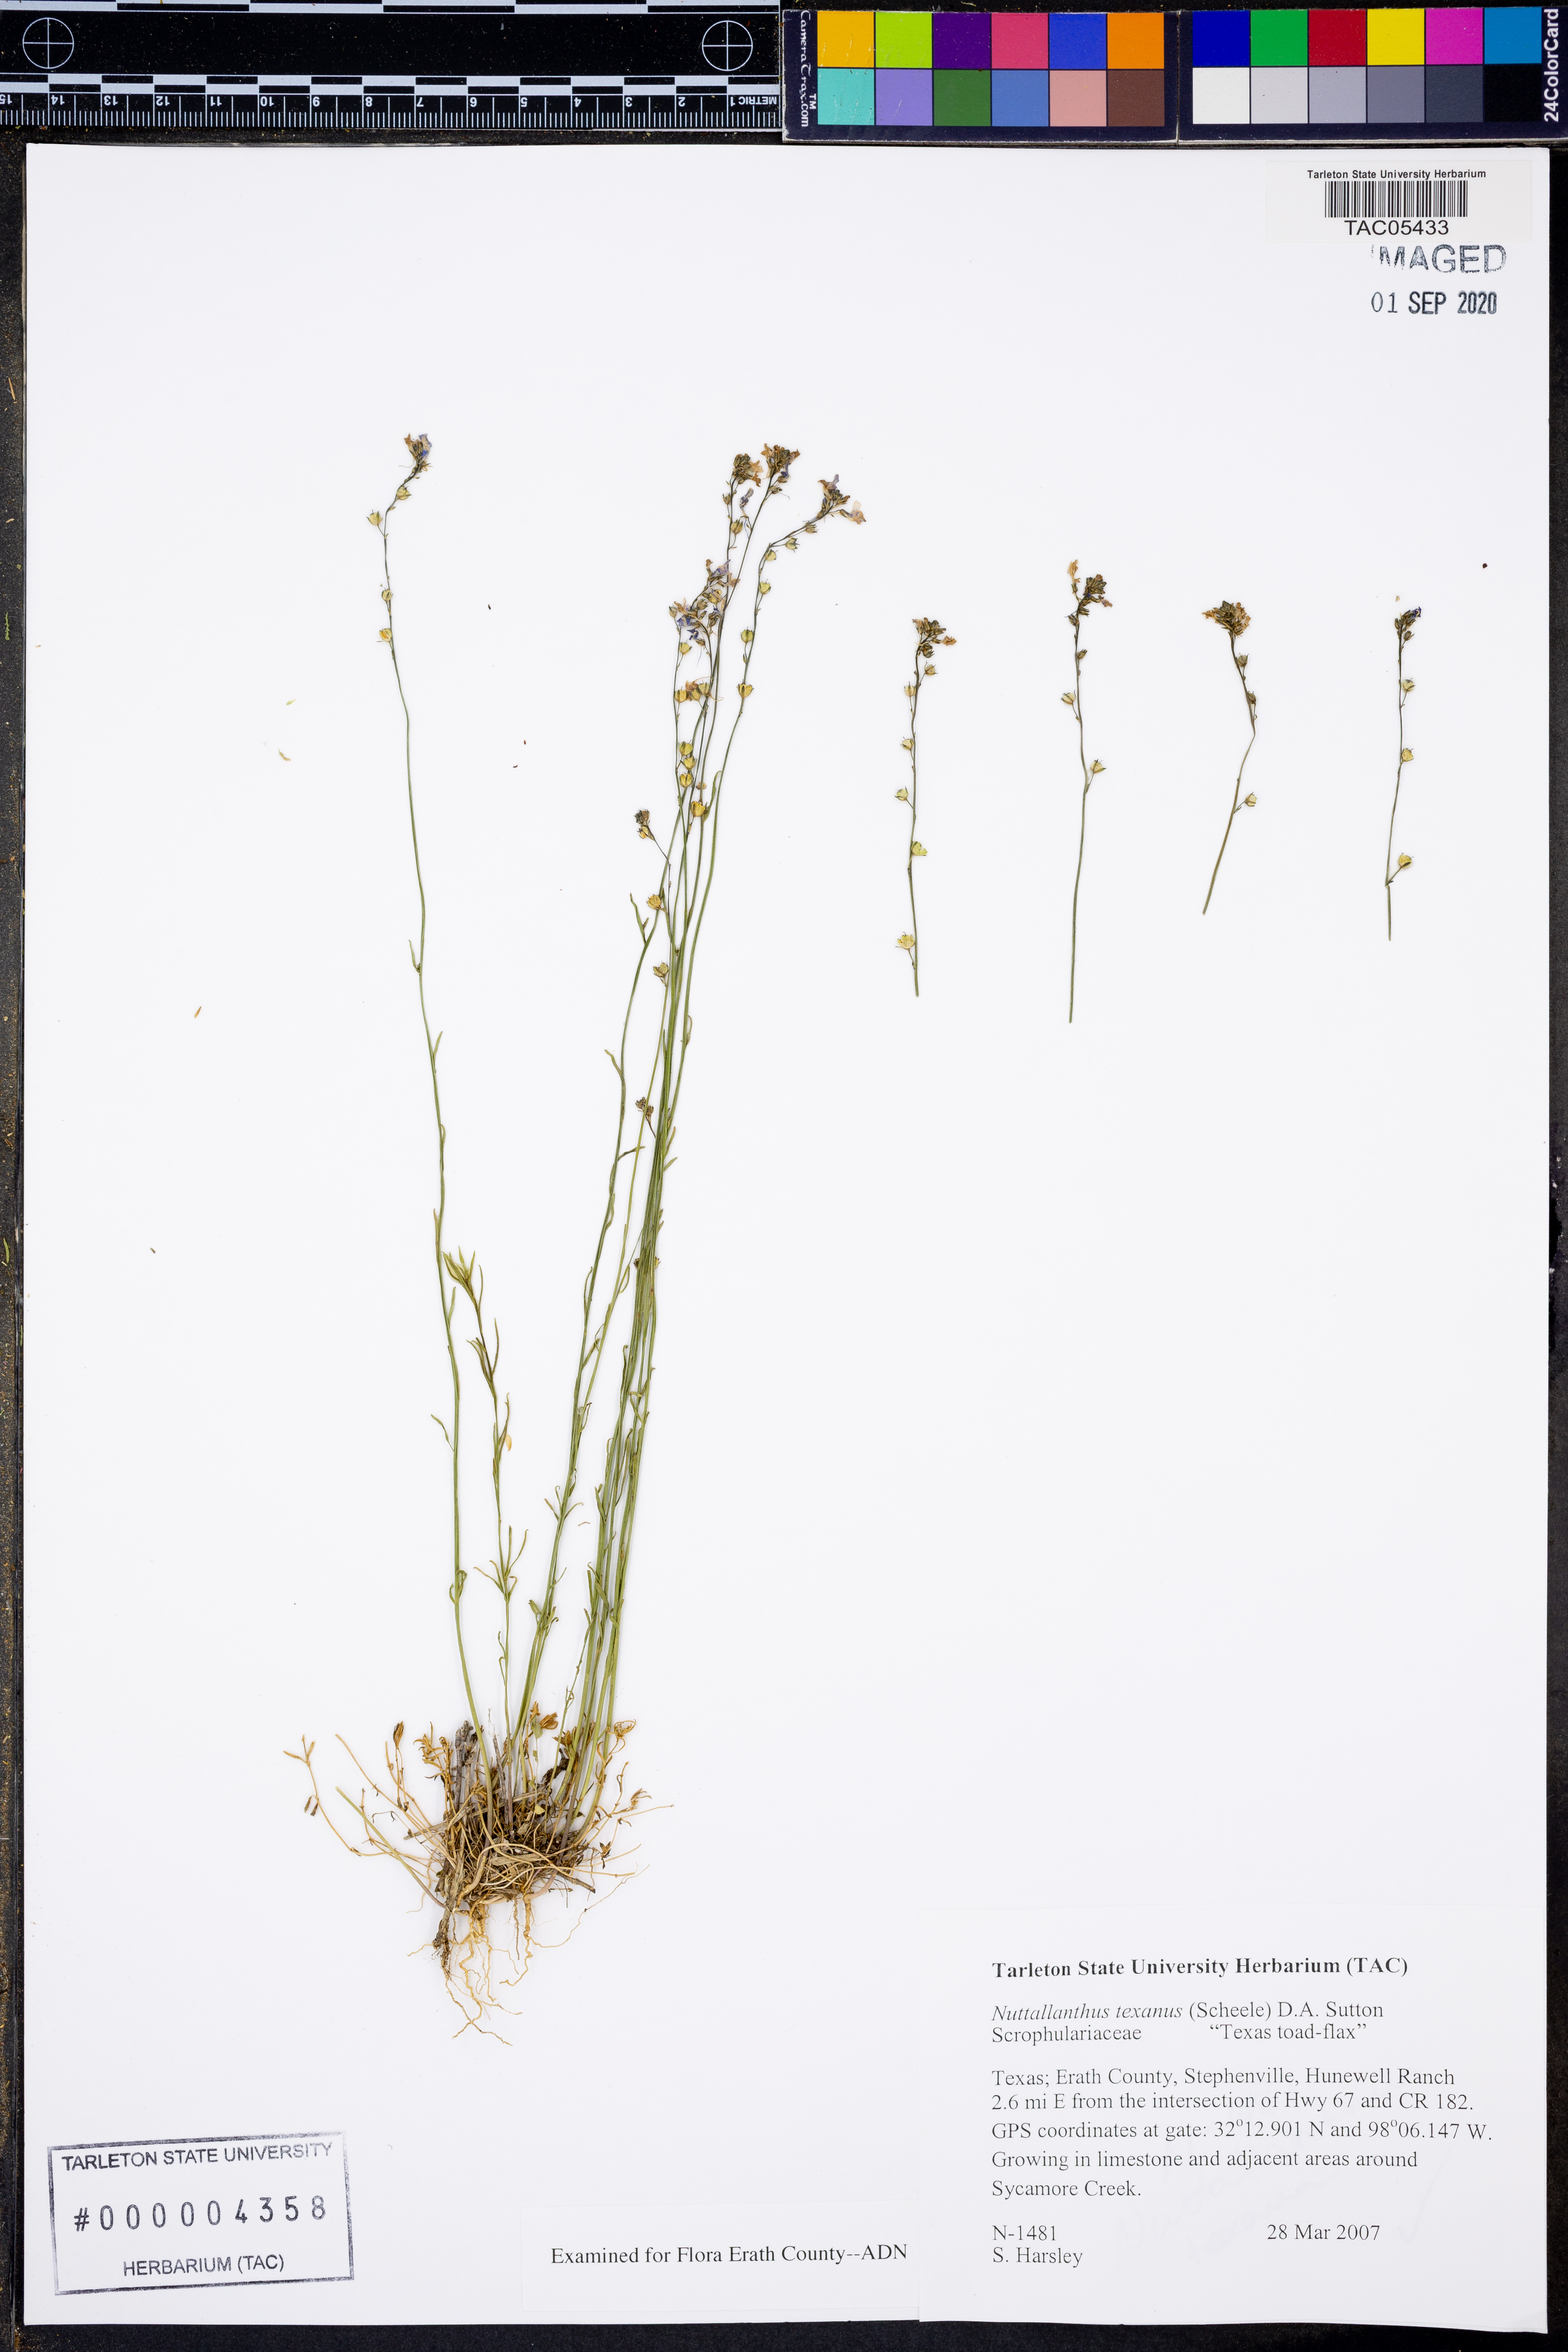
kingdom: Plantae
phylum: Tracheophyta
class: Magnoliopsida
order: Lamiales
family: Plantaginaceae
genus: Nuttallanthus
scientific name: Nuttallanthus texanus
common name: Texas toadflax
